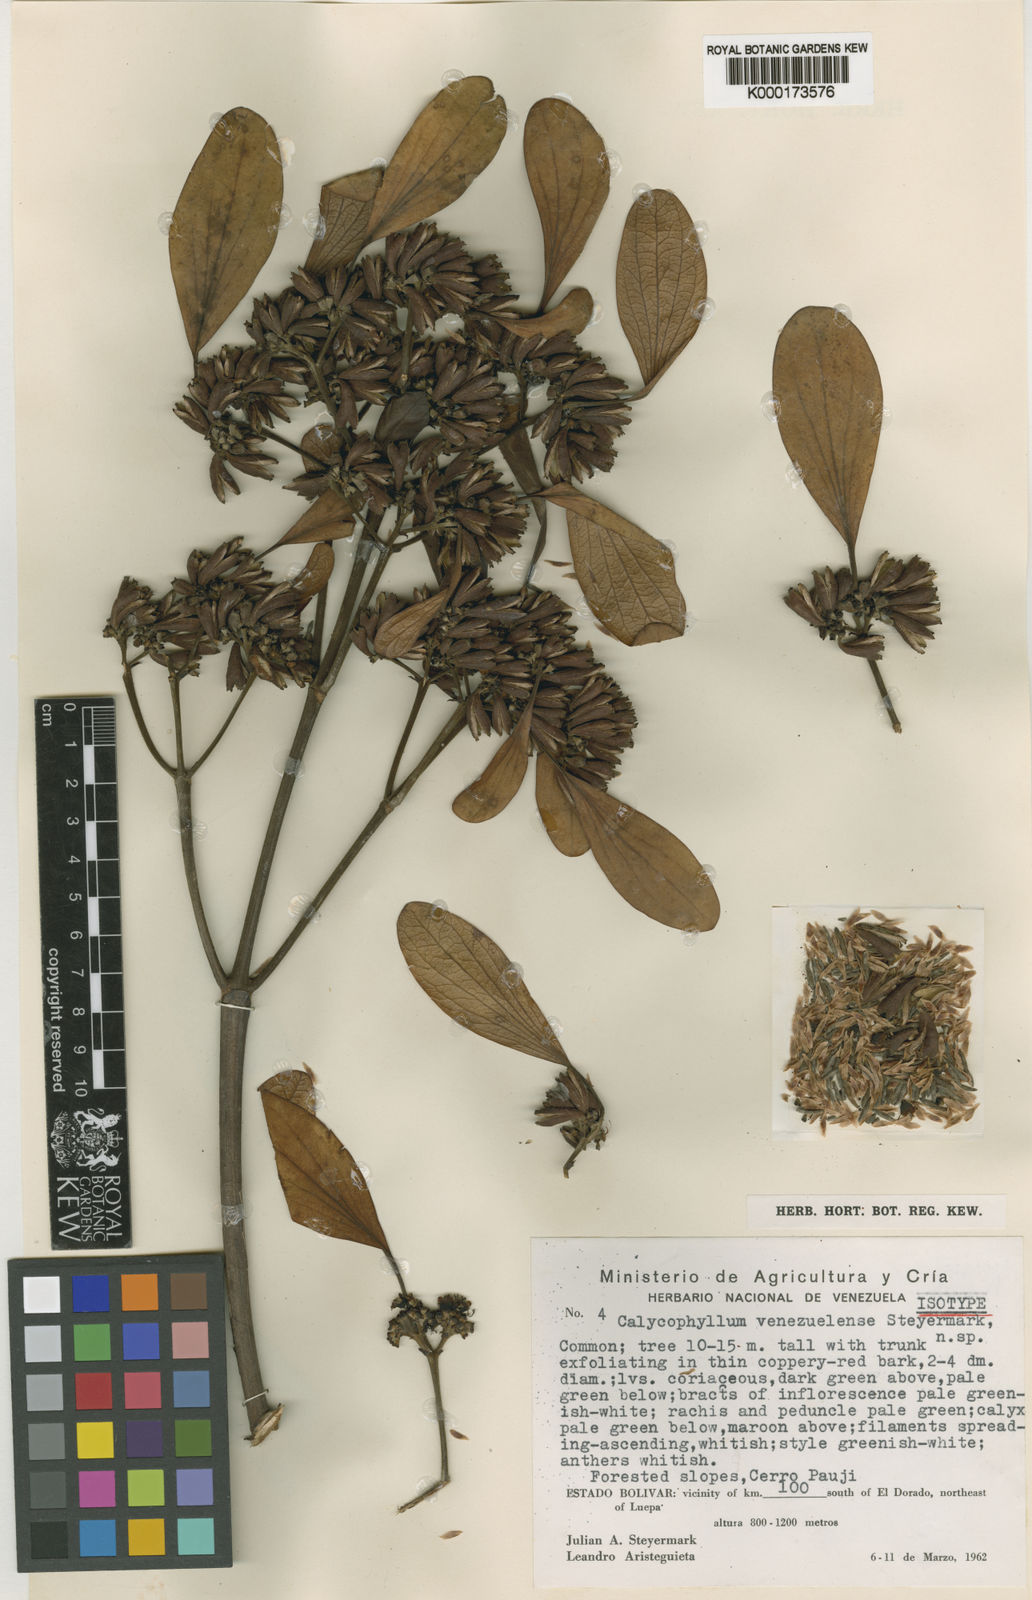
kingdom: Plantae
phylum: Tracheophyta
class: Magnoliopsida
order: Gentianales
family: Rubiaceae
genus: Calycophyllum
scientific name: Calycophyllum venezuelense
